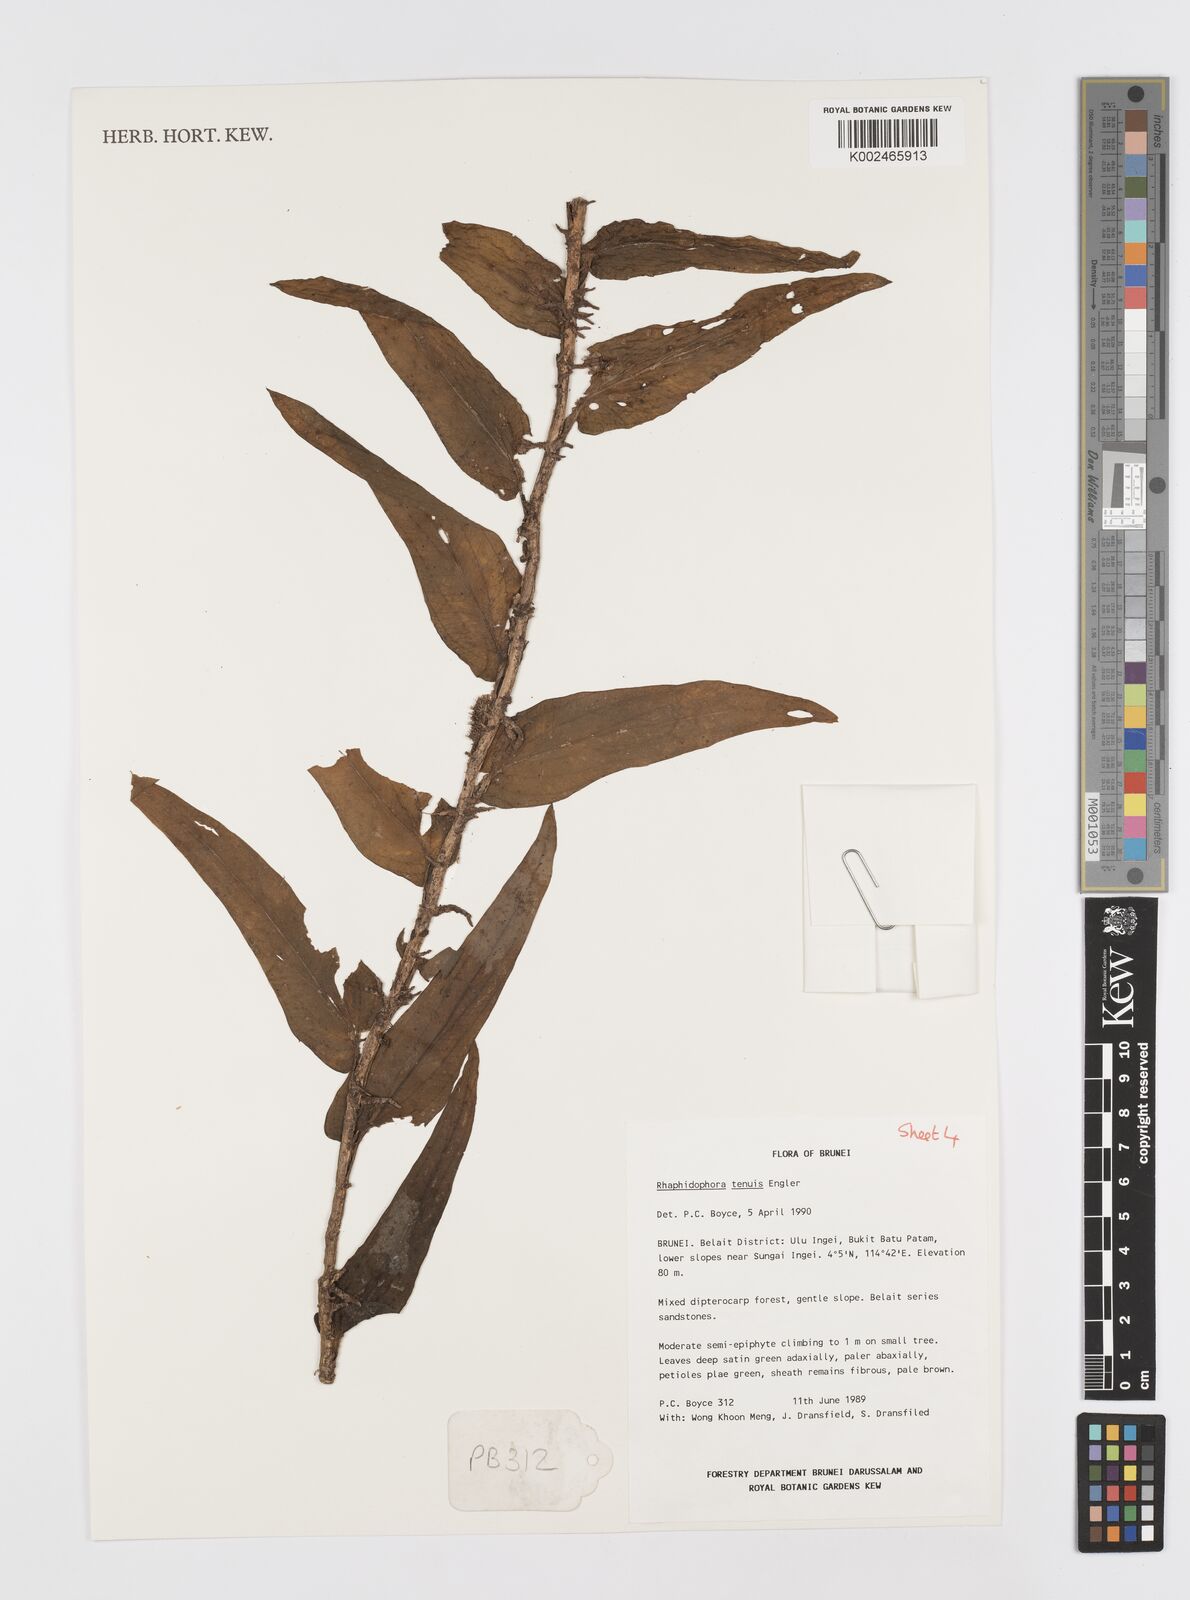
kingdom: Plantae
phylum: Tracheophyta
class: Liliopsida
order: Alismatales
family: Araceae
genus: Rhaphidophora
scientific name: Rhaphidophora korthalsii
